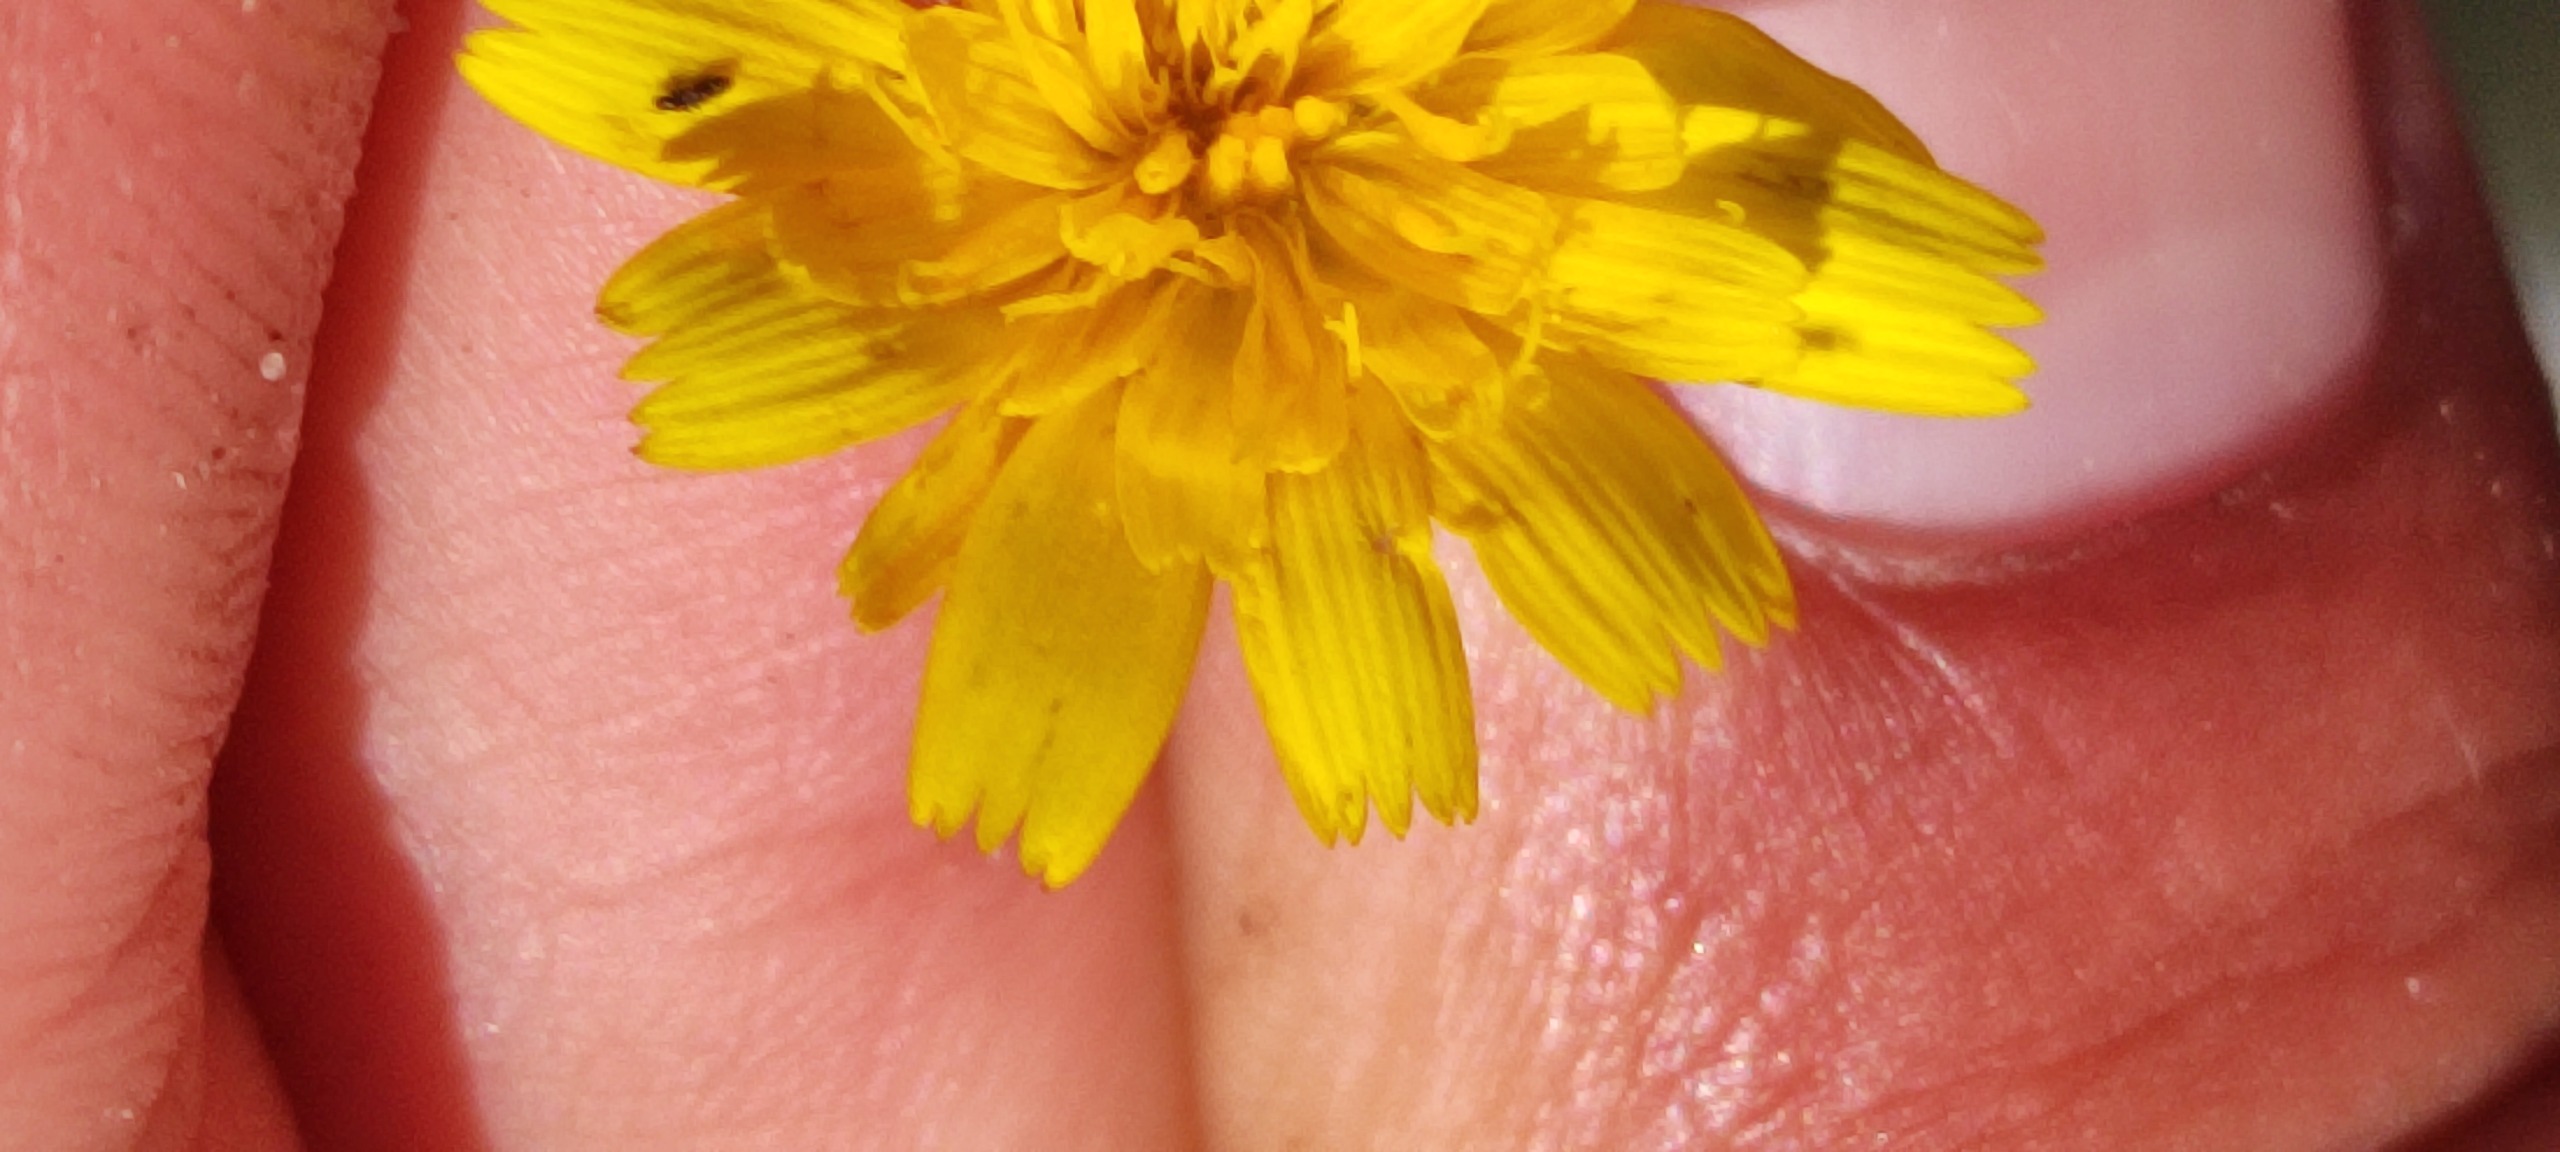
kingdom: Plantae
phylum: Tracheophyta
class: Magnoliopsida
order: Asterales
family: Asteraceae
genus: Leontodon
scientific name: Leontodon
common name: Borstslægten
